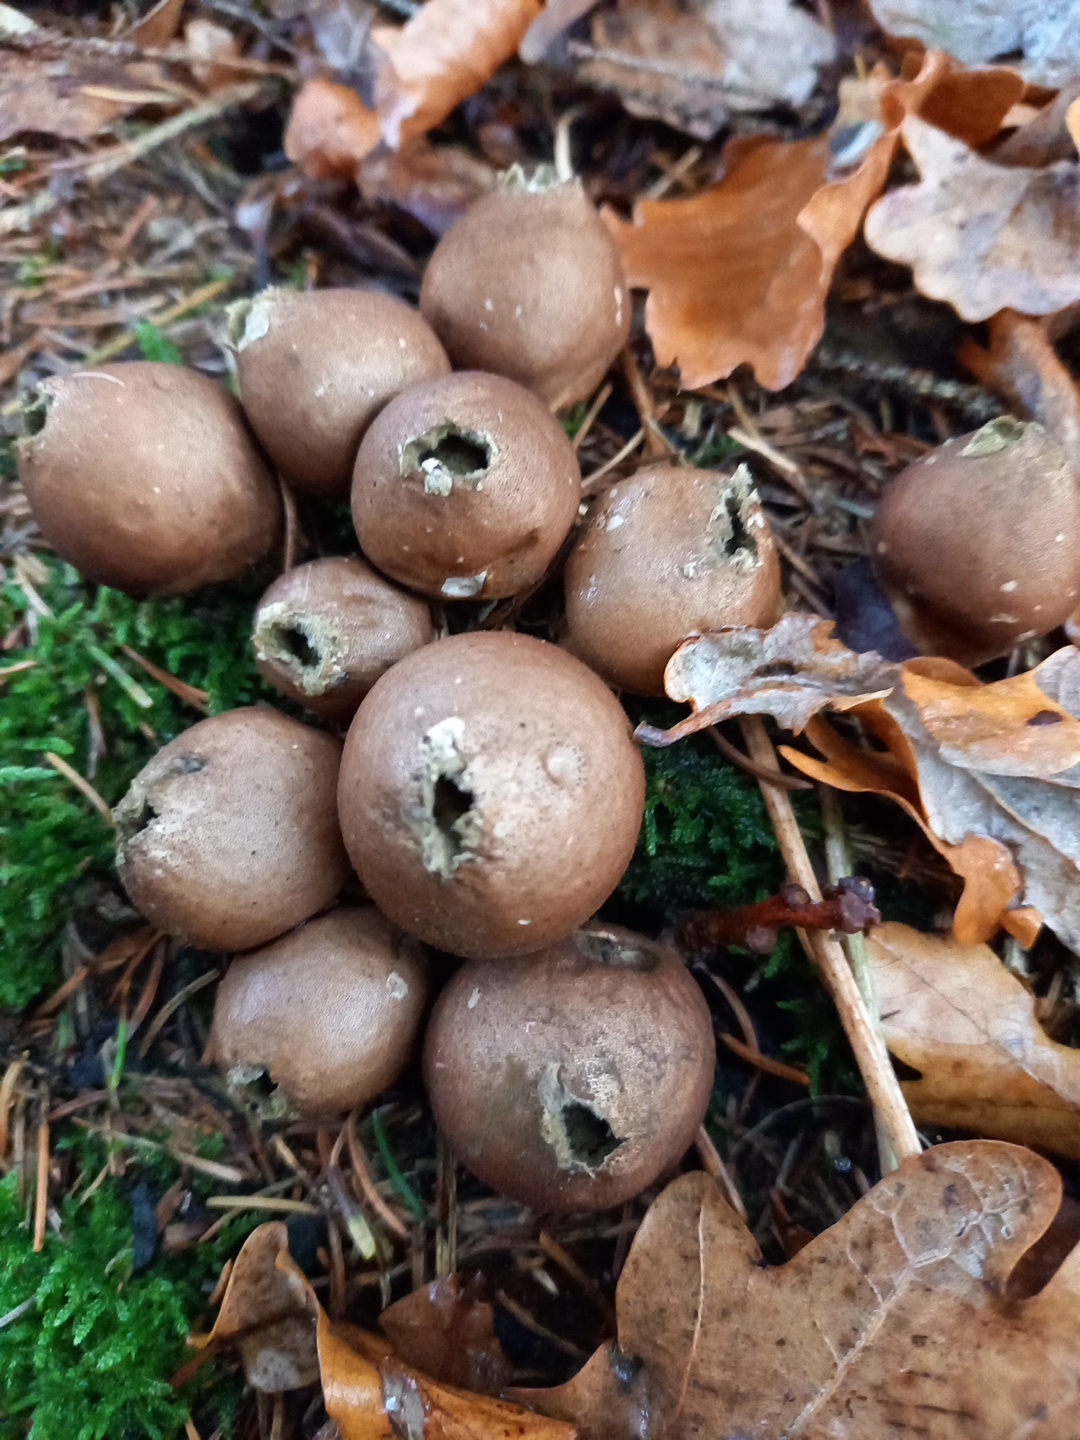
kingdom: Fungi
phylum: Basidiomycota
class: Agaricomycetes
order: Agaricales
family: Lycoperdaceae
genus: Apioperdon
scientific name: Apioperdon pyriforme
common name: pære-støvbold
